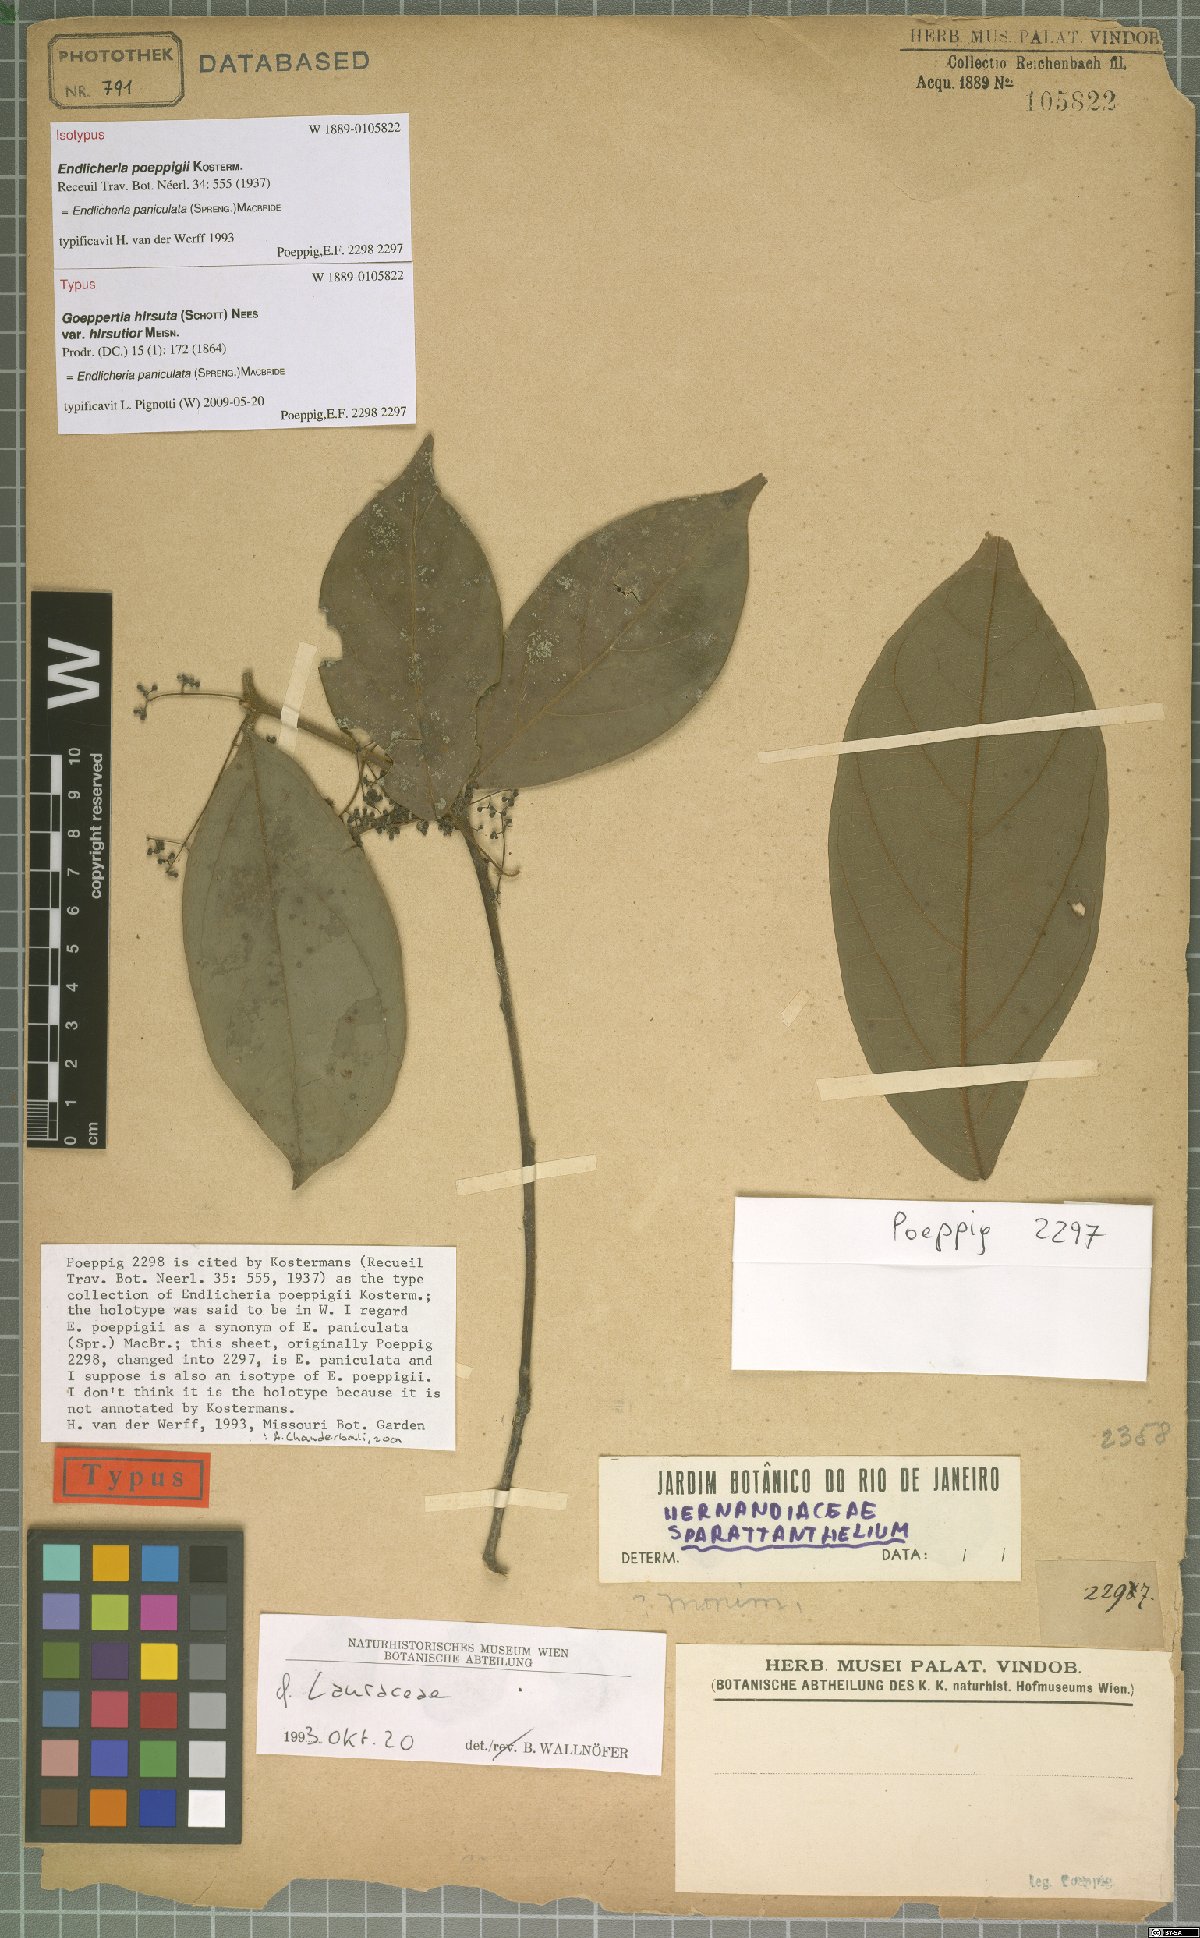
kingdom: Plantae
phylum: Tracheophyta
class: Magnoliopsida
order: Laurales
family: Lauraceae
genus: Endlicheria
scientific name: Endlicheria paniculata
